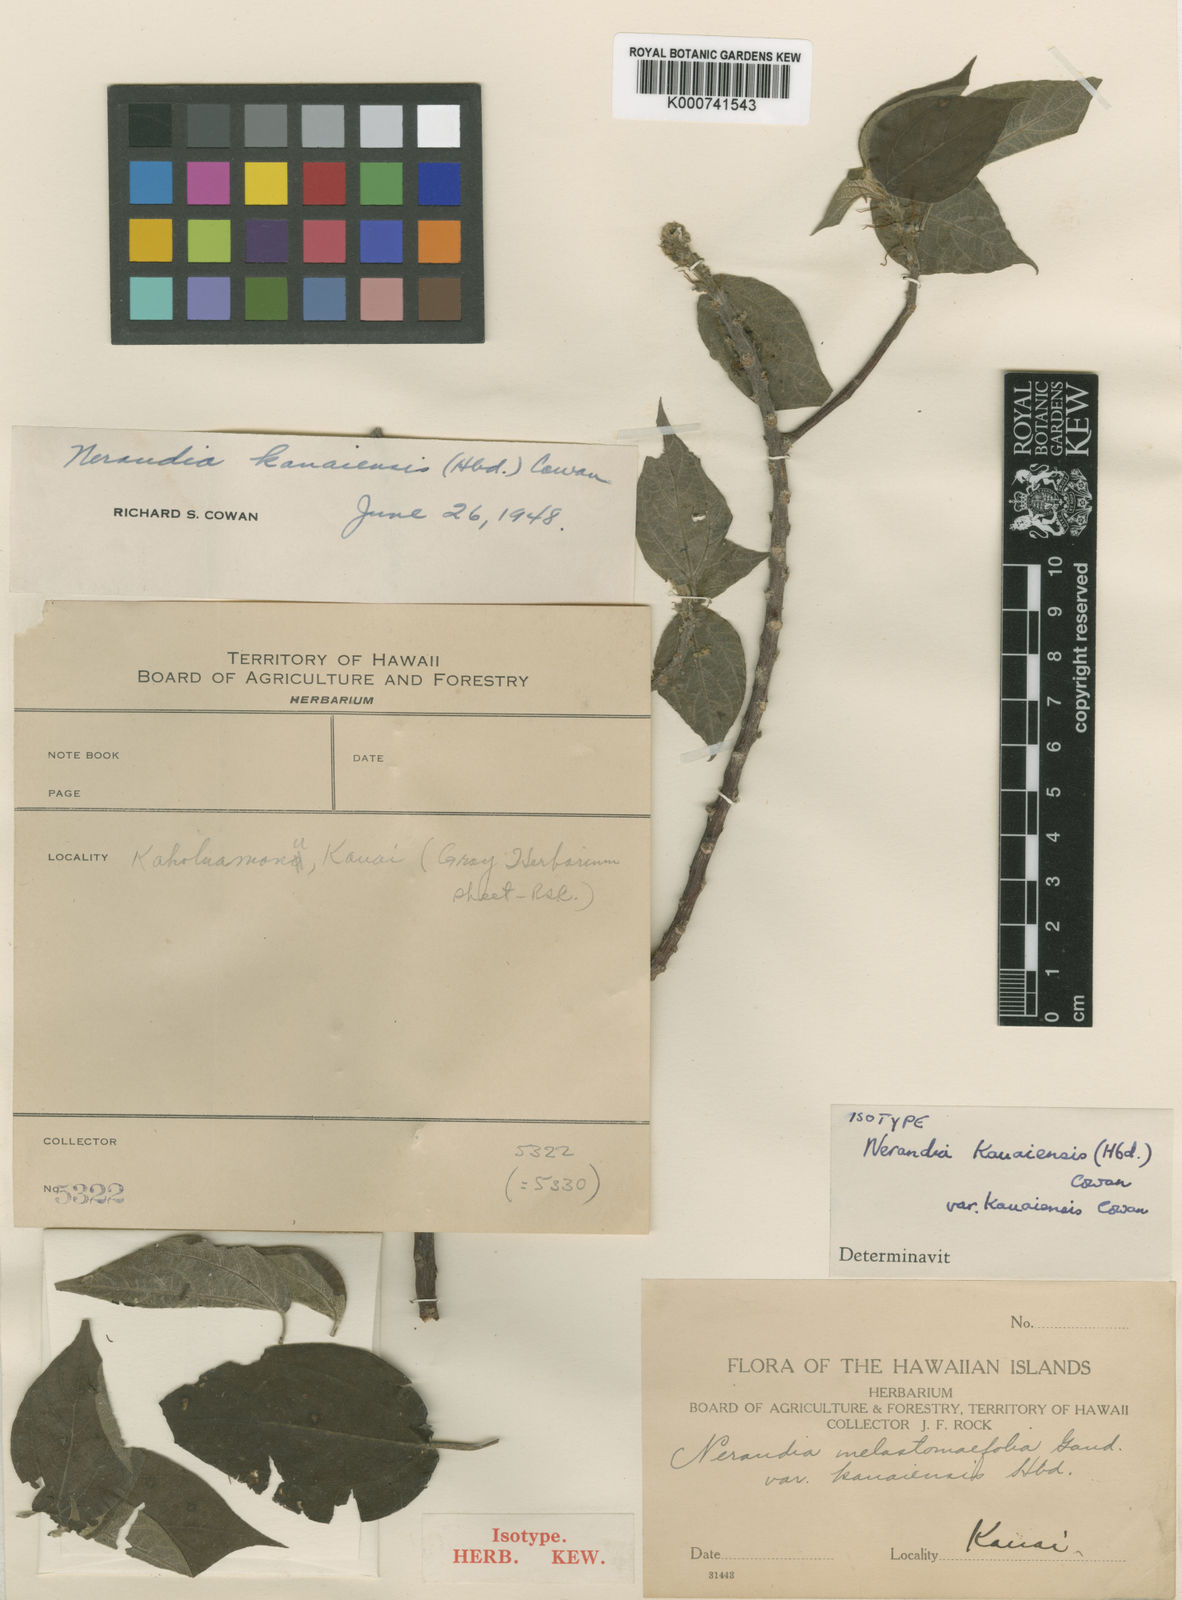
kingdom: Plantae
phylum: Tracheophyta
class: Magnoliopsida
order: Rosales
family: Urticaceae
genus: Neraudia
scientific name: Neraudia kauaiensis
